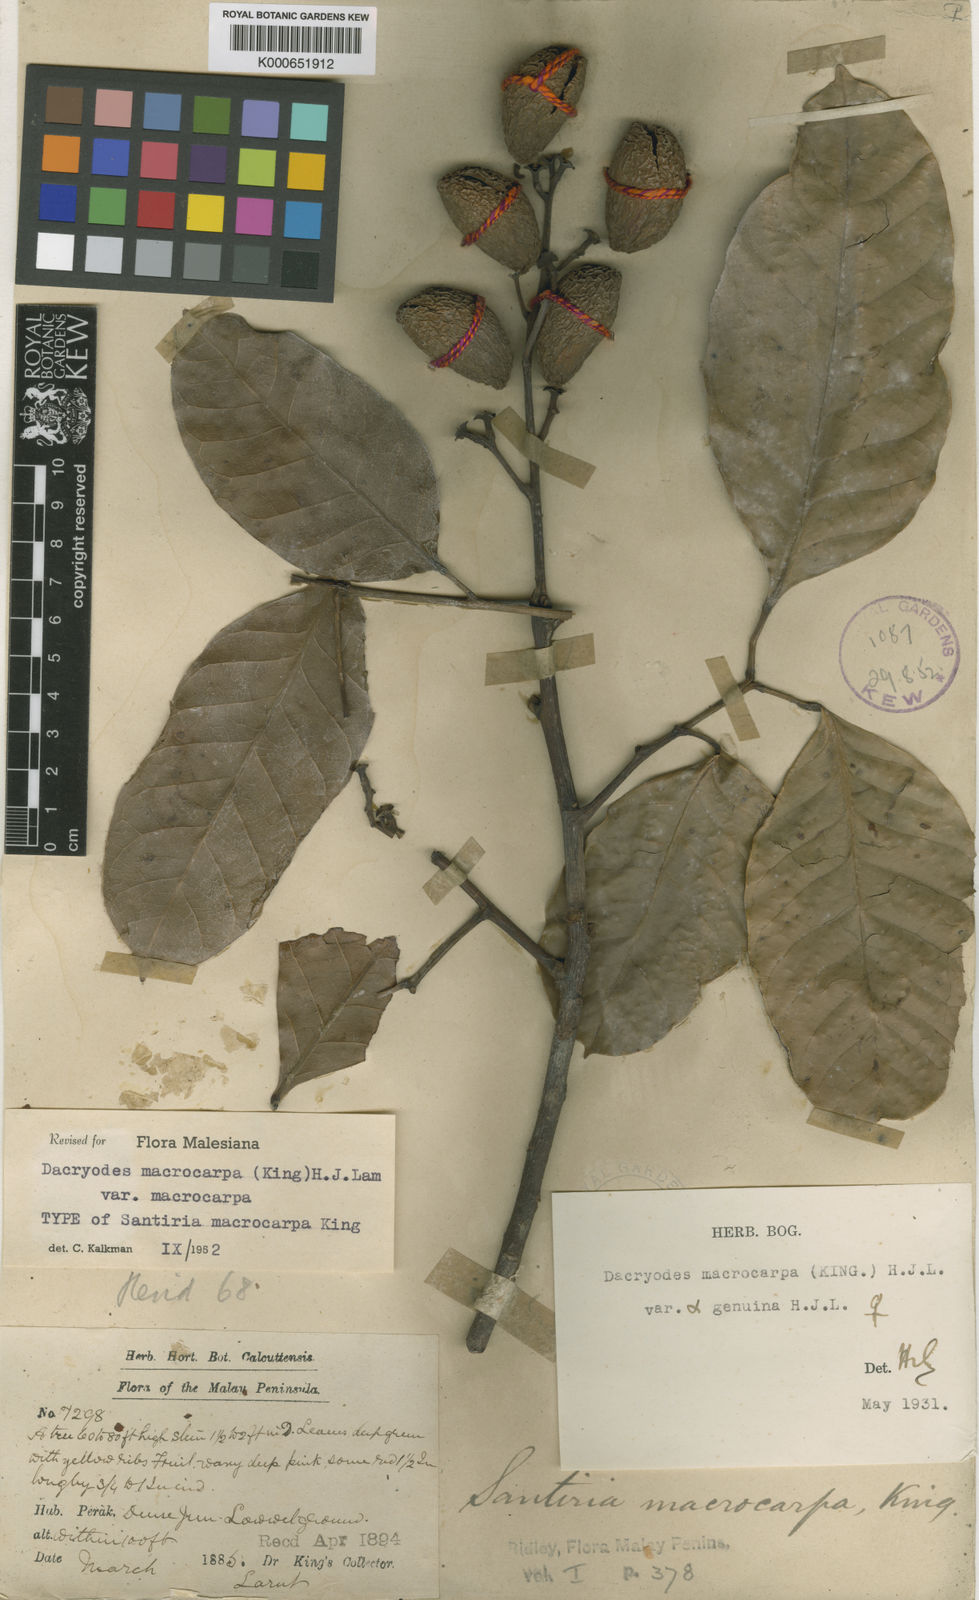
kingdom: Plantae
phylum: Tracheophyta
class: Magnoliopsida
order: Sapindales
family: Burseraceae
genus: Dacryodes
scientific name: Dacryodes macrocarpa
